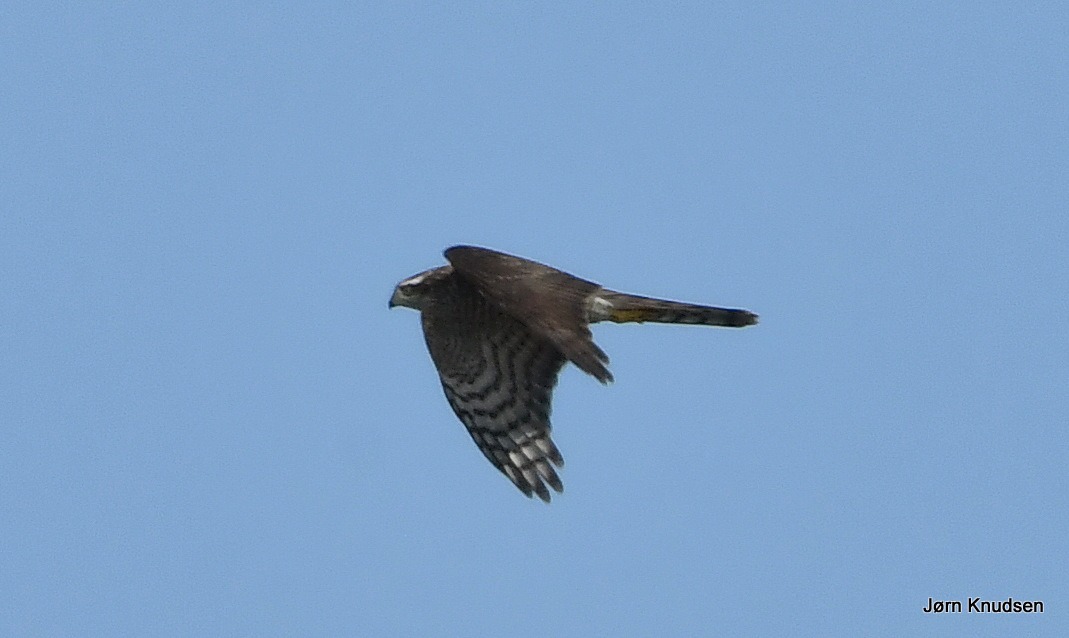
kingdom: Animalia
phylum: Chordata
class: Aves
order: Accipitriformes
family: Accipitridae
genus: Accipiter
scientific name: Accipiter nisus
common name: Spurvehøg
